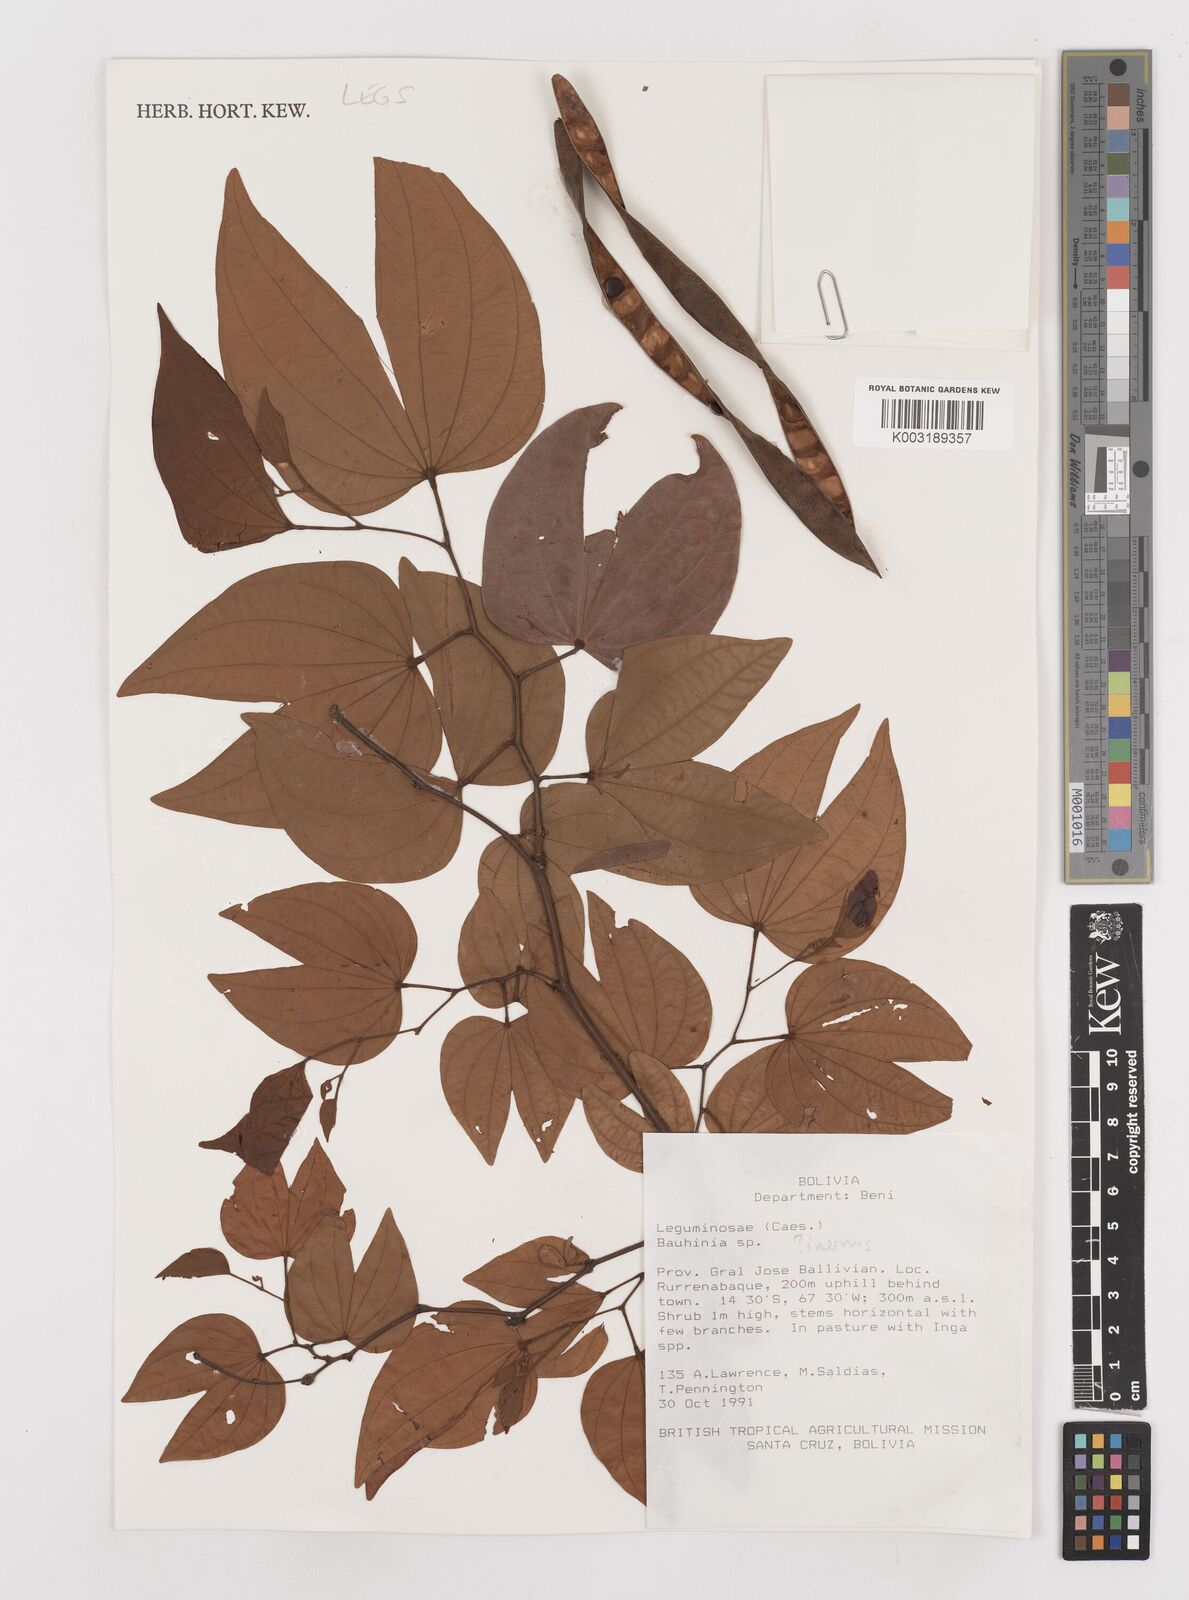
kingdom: Plantae
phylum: Tracheophyta
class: Magnoliopsida
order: Fabales
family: Fabaceae
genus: Bauhinia
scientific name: Bauhinia
